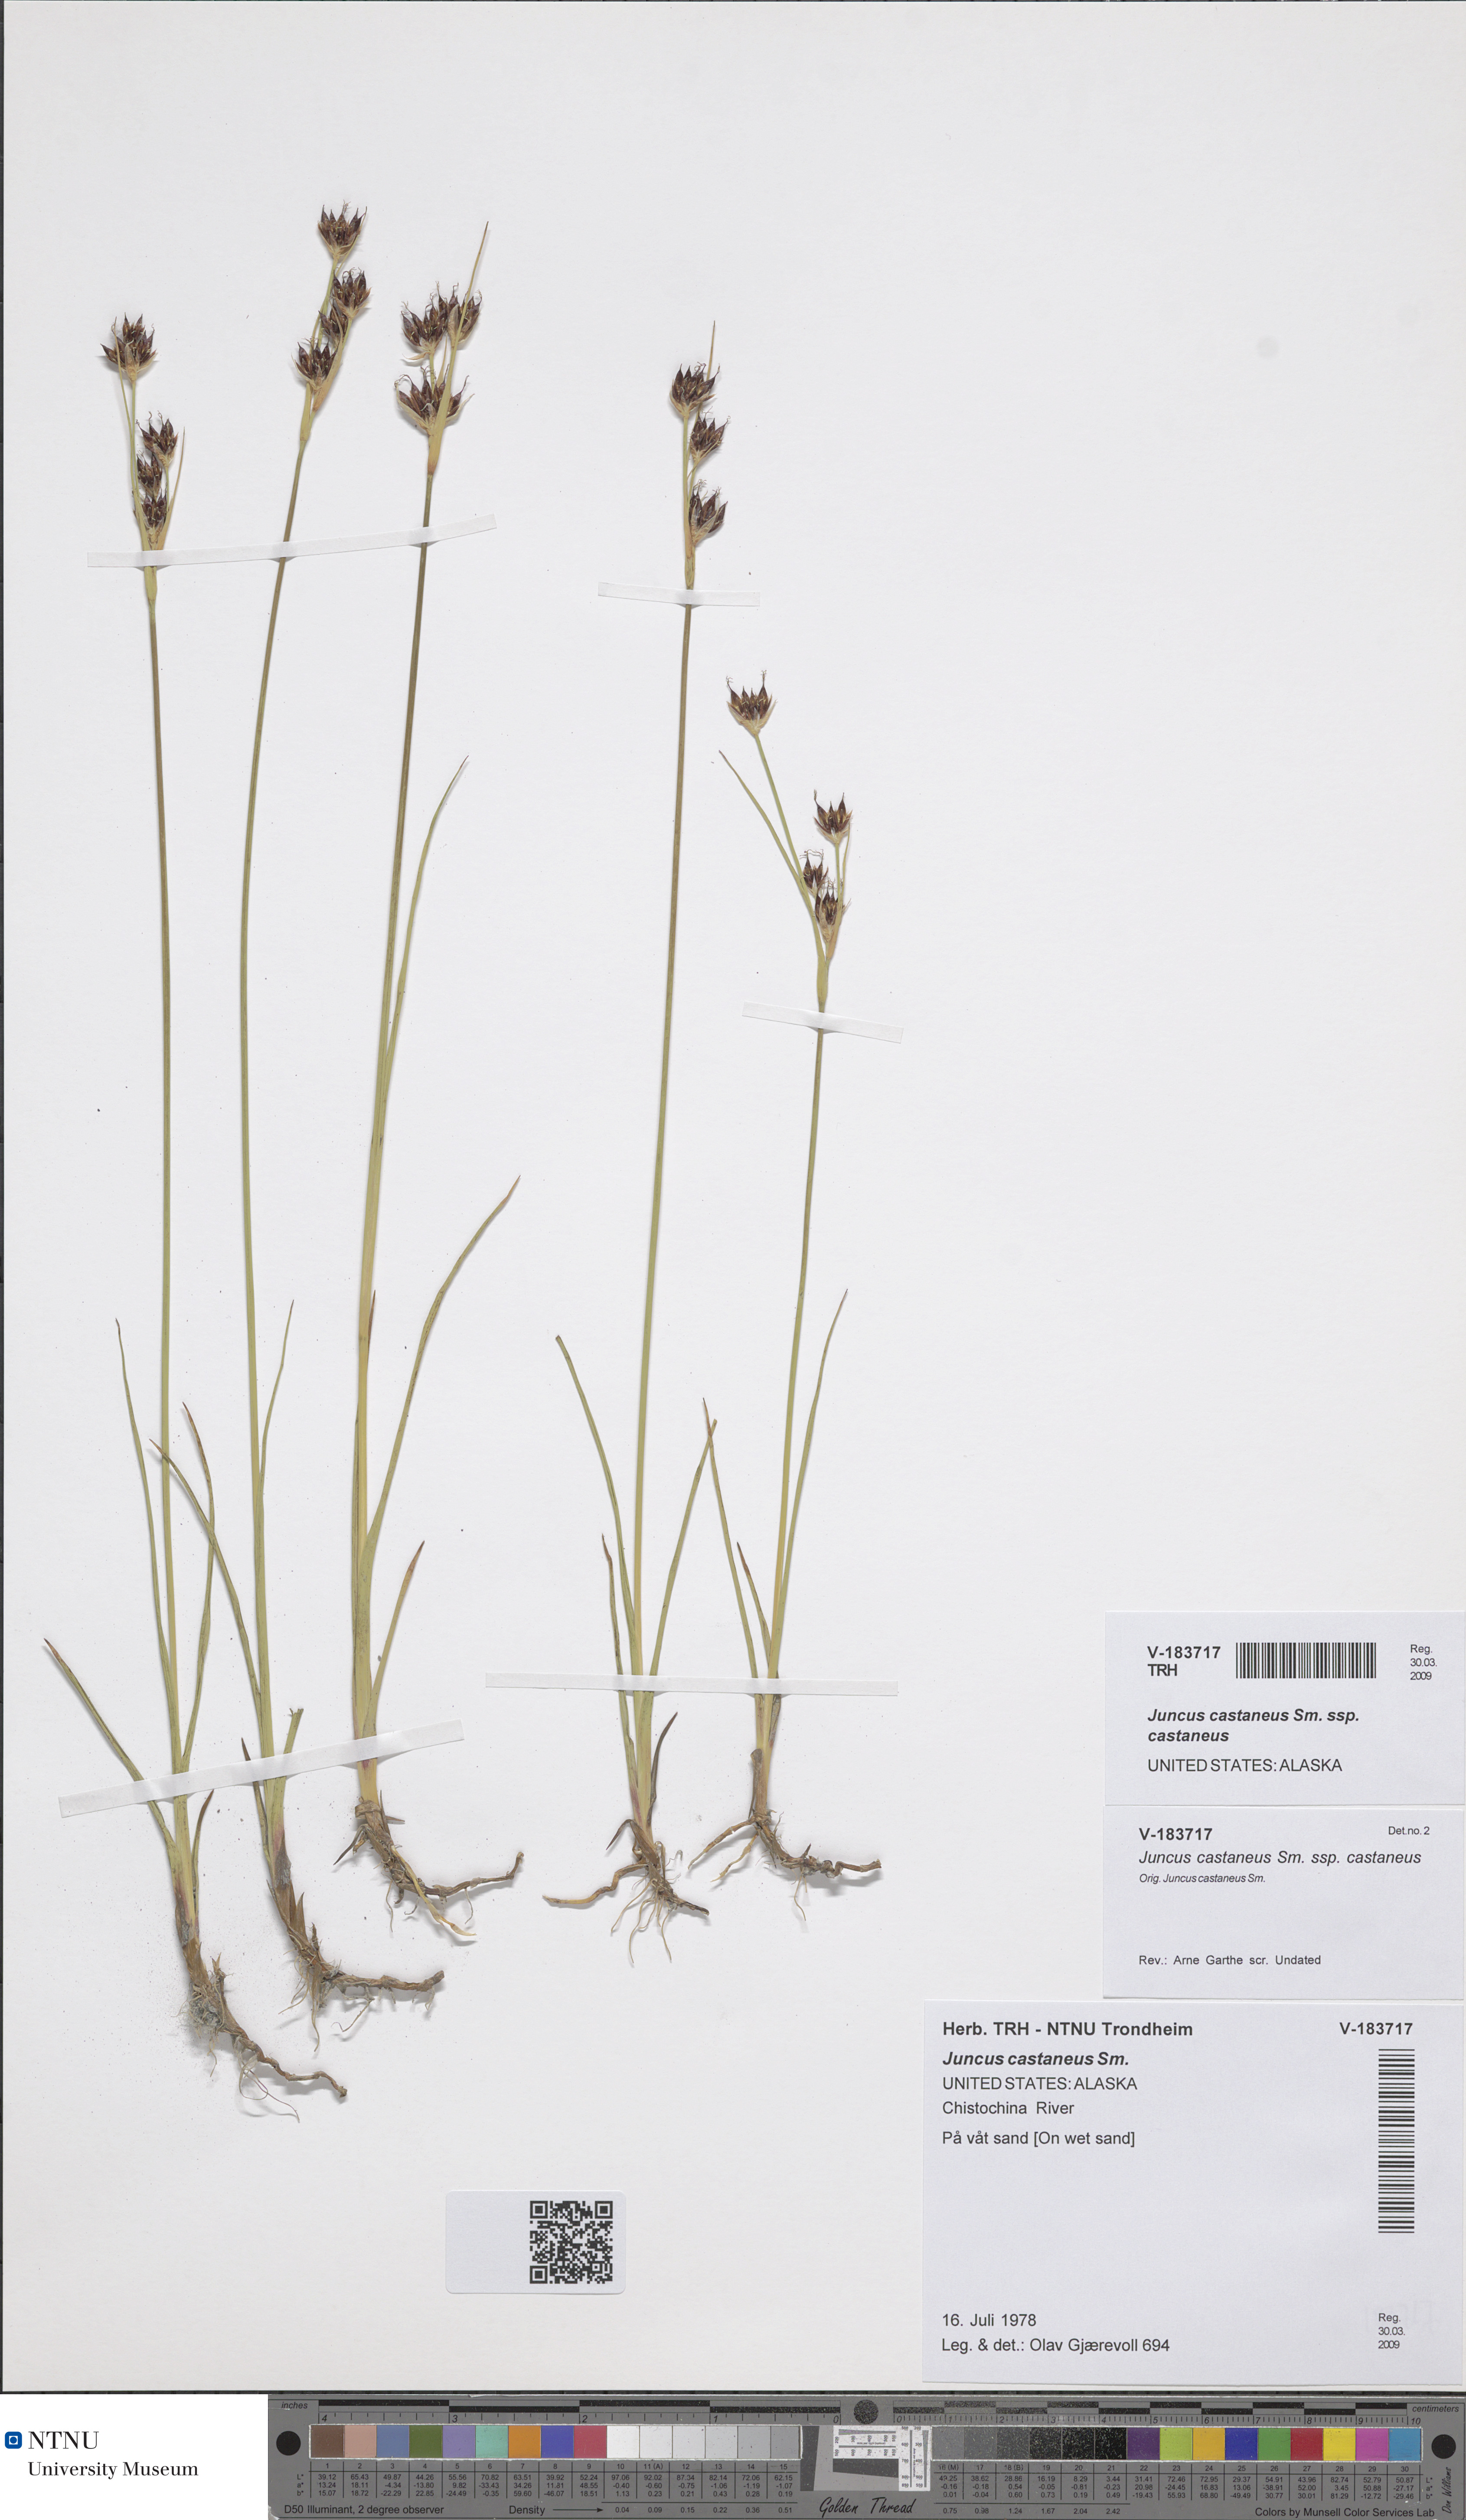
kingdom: Plantae
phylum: Tracheophyta
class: Liliopsida
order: Poales
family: Juncaceae
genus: Juncus
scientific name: Juncus castaneus
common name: Chestnut rush
